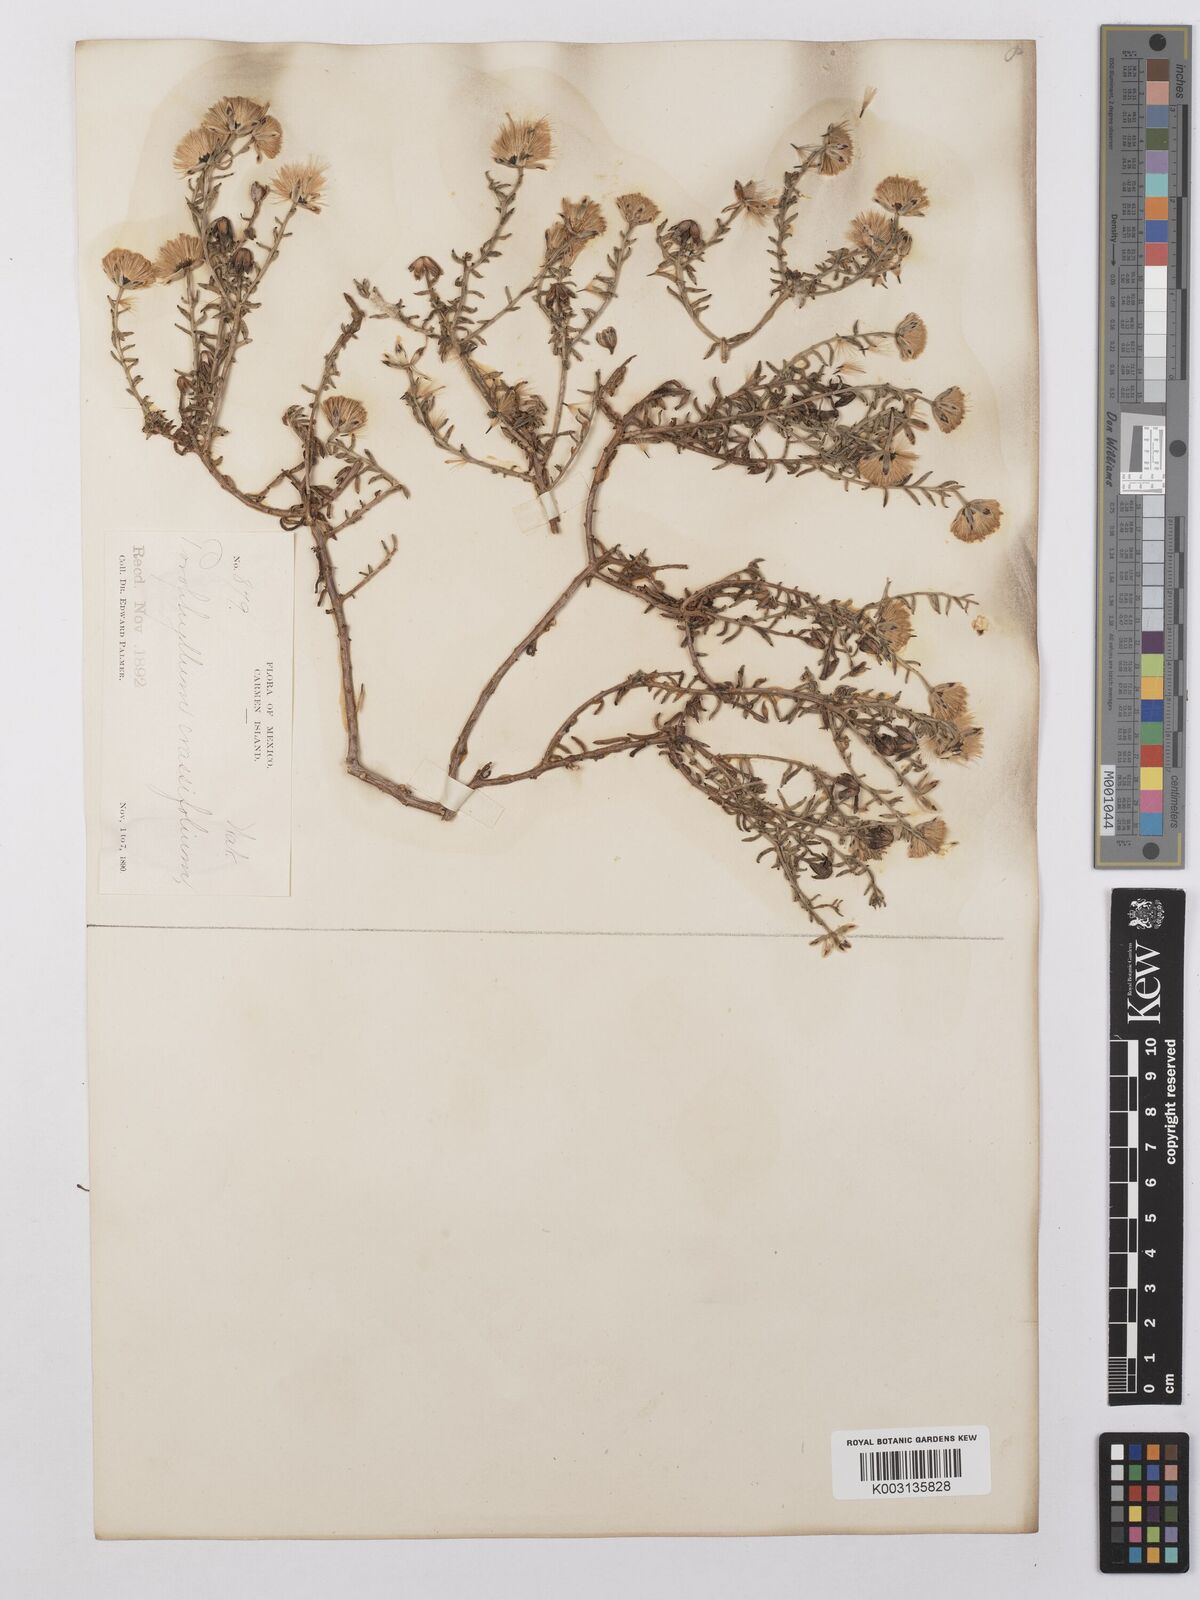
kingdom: Plantae
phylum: Tracheophyta
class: Magnoliopsida
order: Asterales
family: Asteraceae
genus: Bajacalia
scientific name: Bajacalia crassifolia
